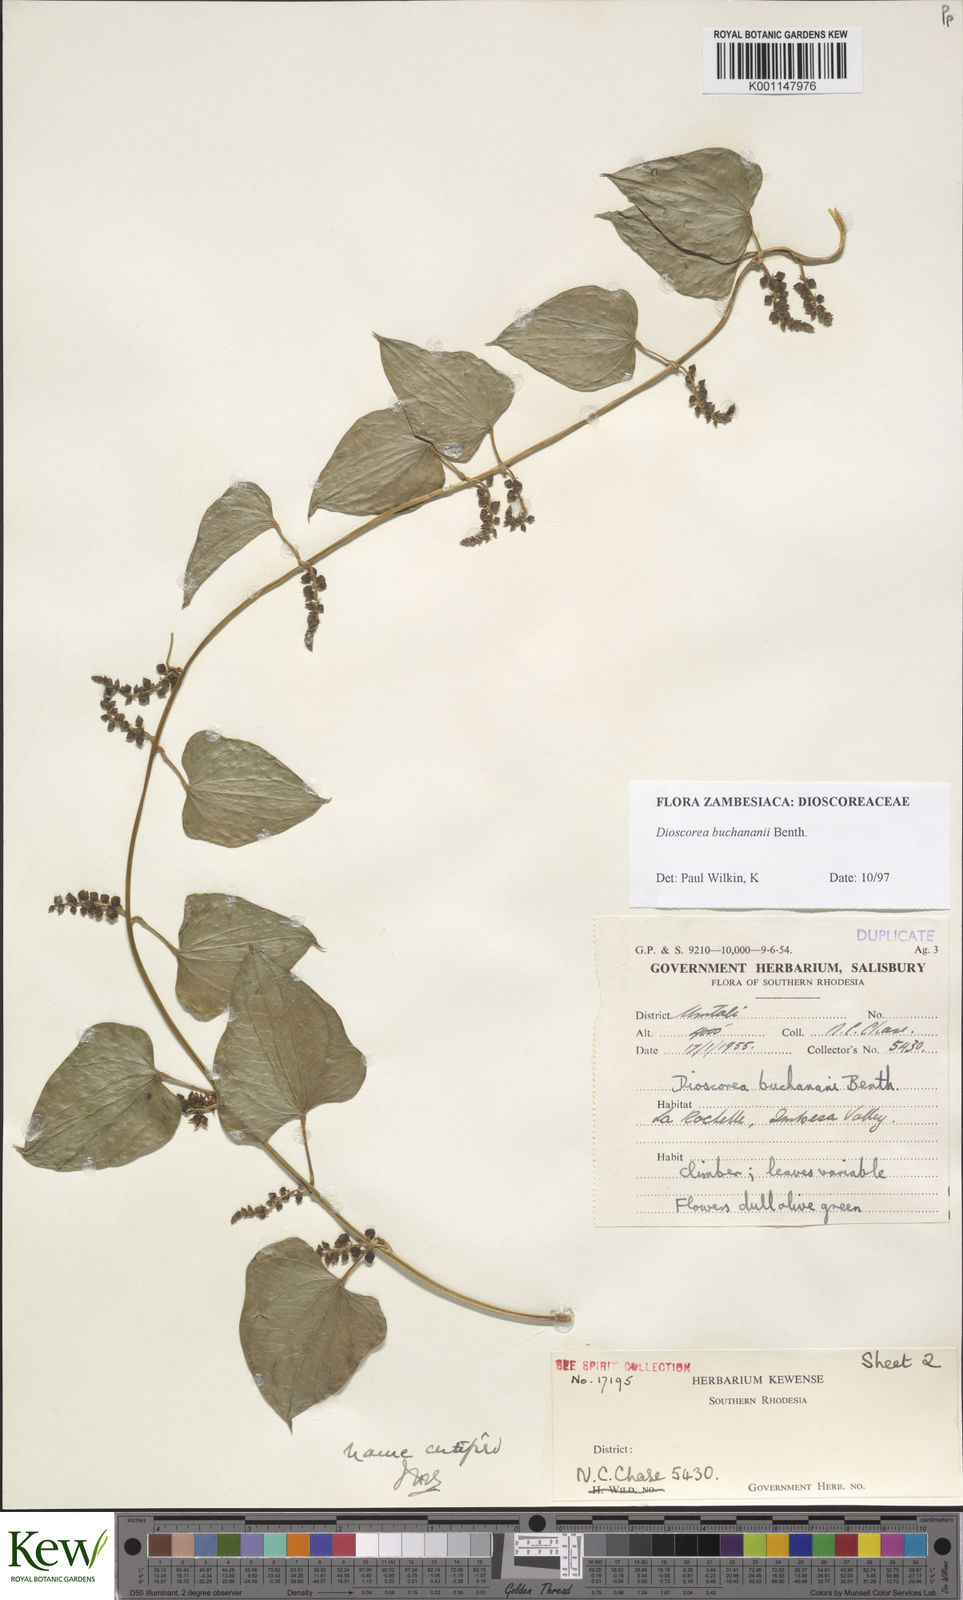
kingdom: Plantae
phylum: Tracheophyta
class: Liliopsida
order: Dioscoreales
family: Dioscoreaceae
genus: Dioscorea
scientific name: Dioscorea buchananii
